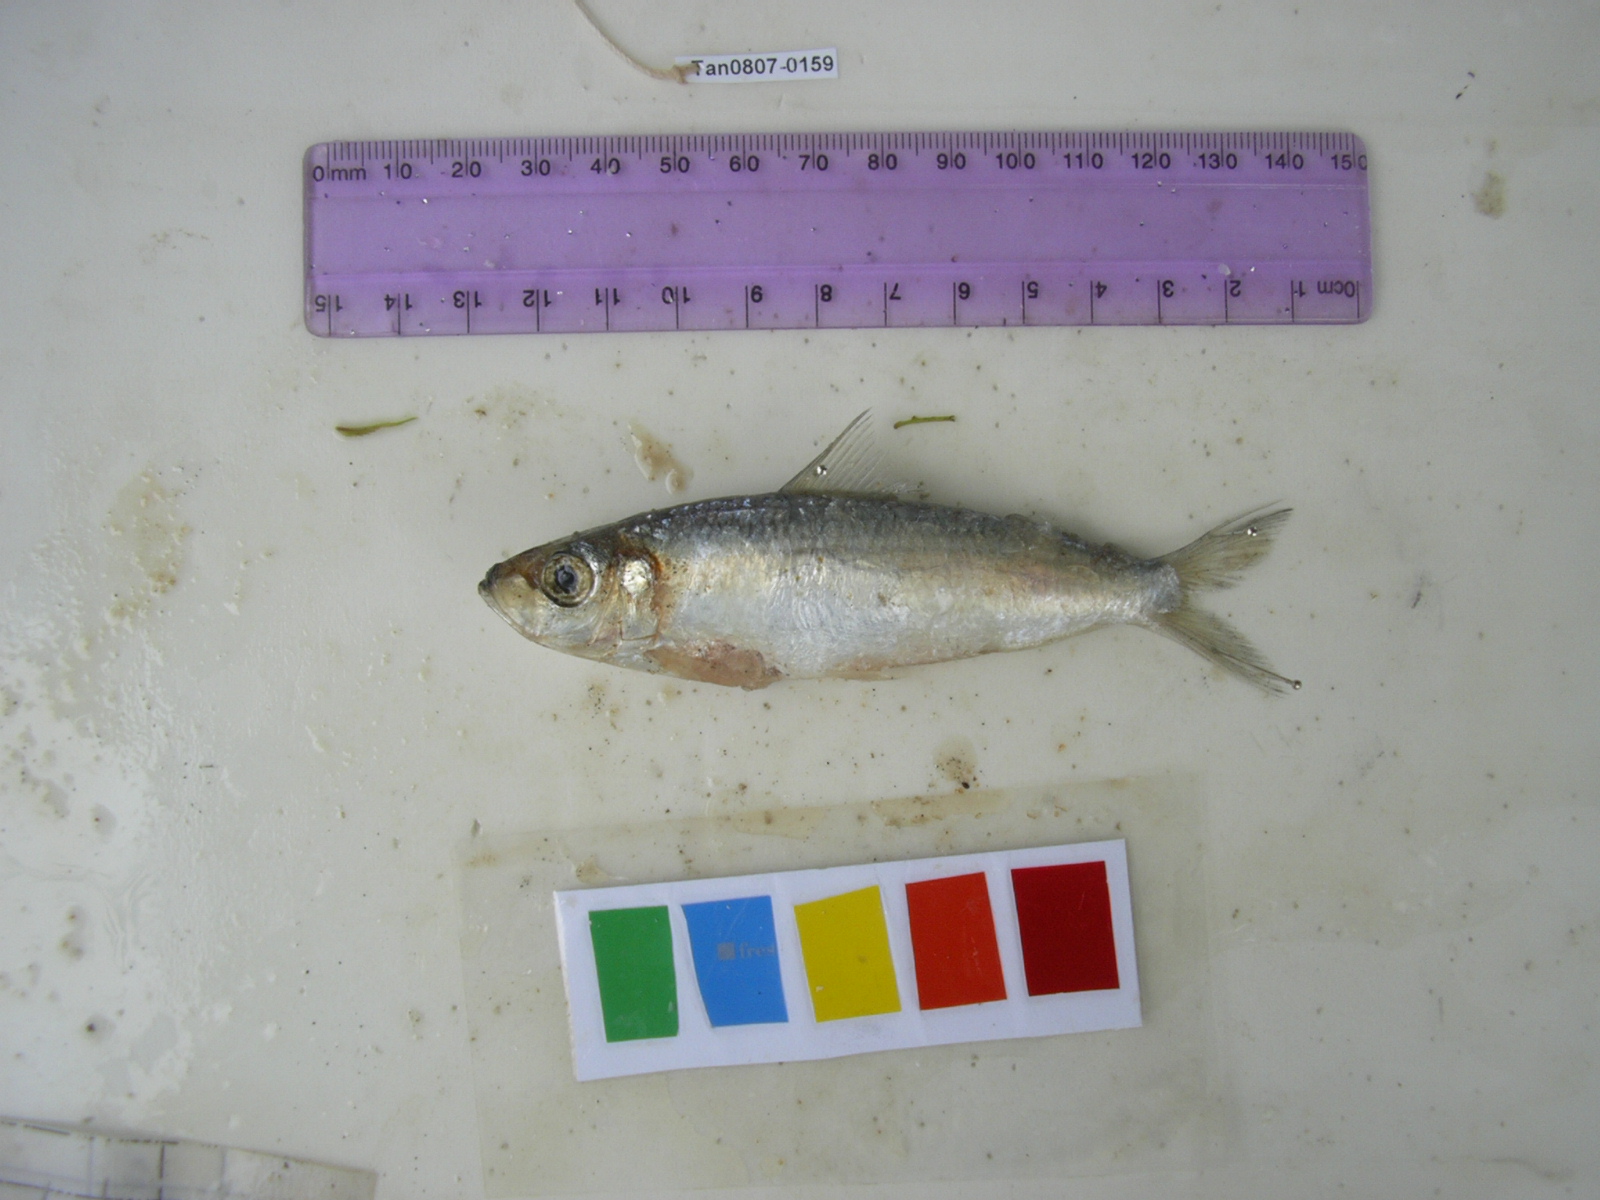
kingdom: Animalia
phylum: Chordata
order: Clupeiformes
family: Clupeidae
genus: Herklotsichthys
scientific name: Herklotsichthys quadrimaculatus
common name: Goldspot herring
